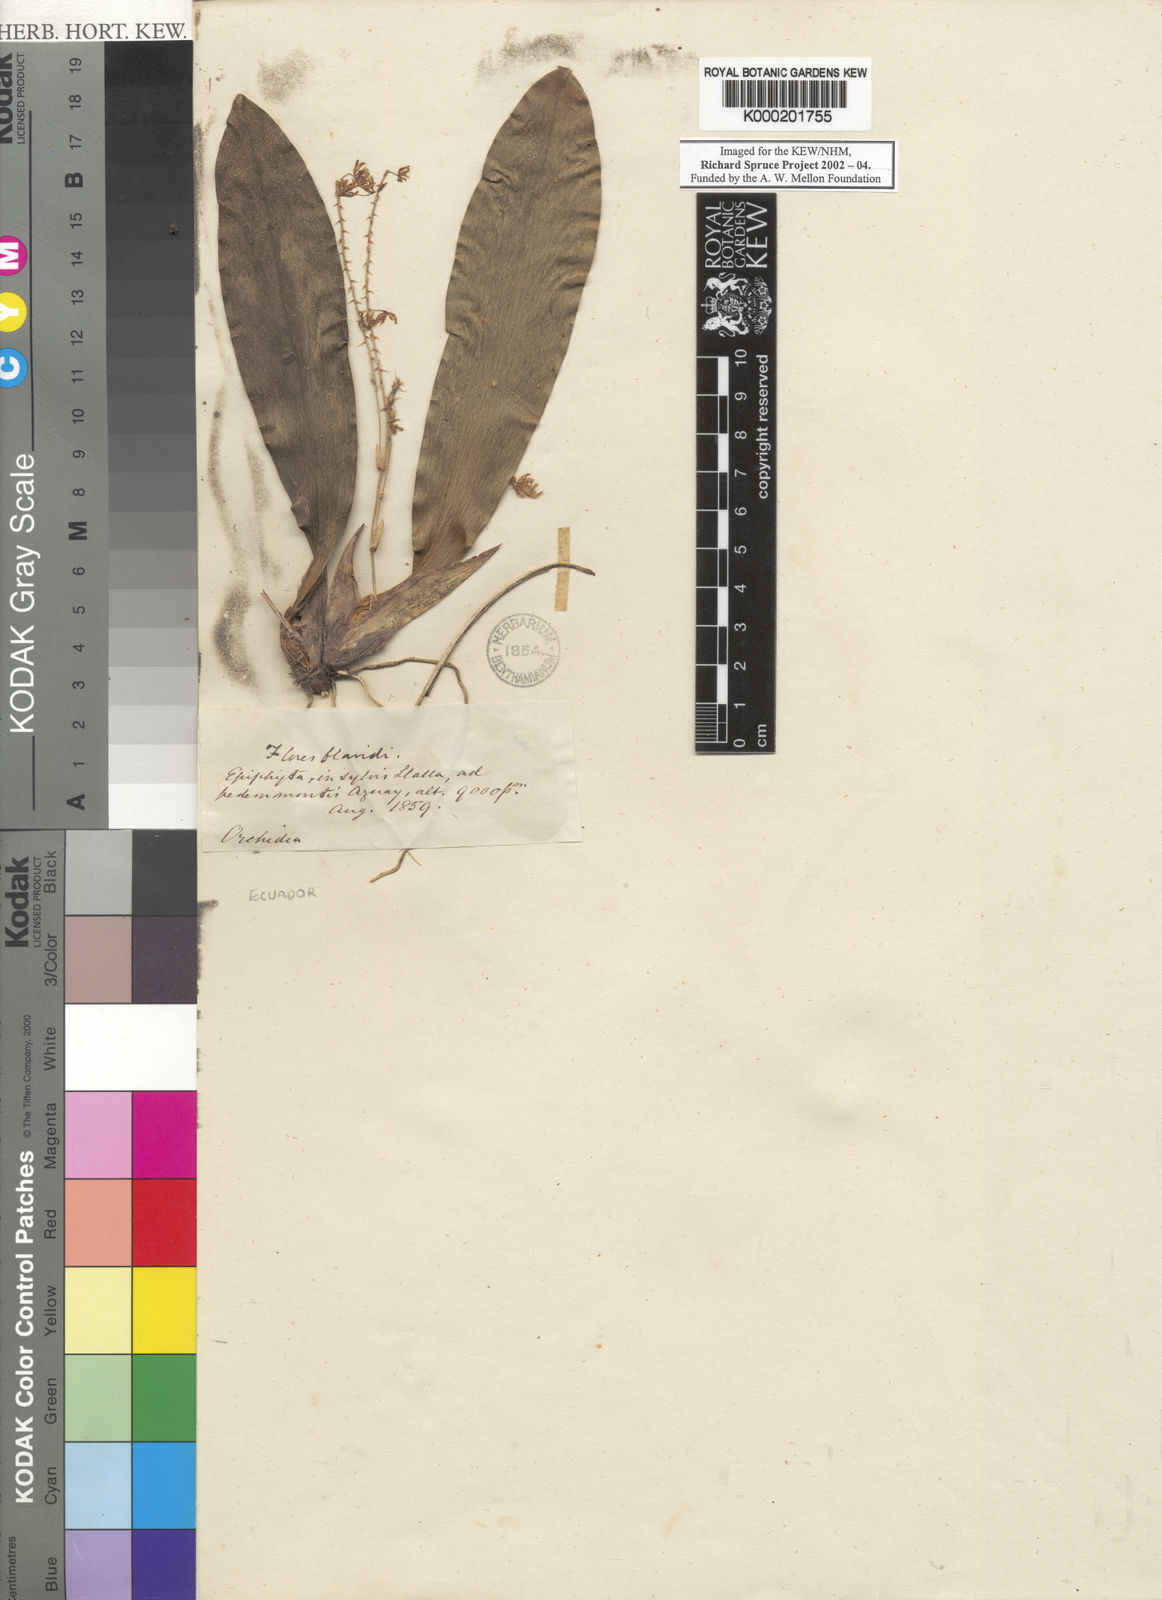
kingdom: Plantae
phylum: Tracheophyta
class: Liliopsida
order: Asparagales
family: Orchidaceae
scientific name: Orchidaceae
